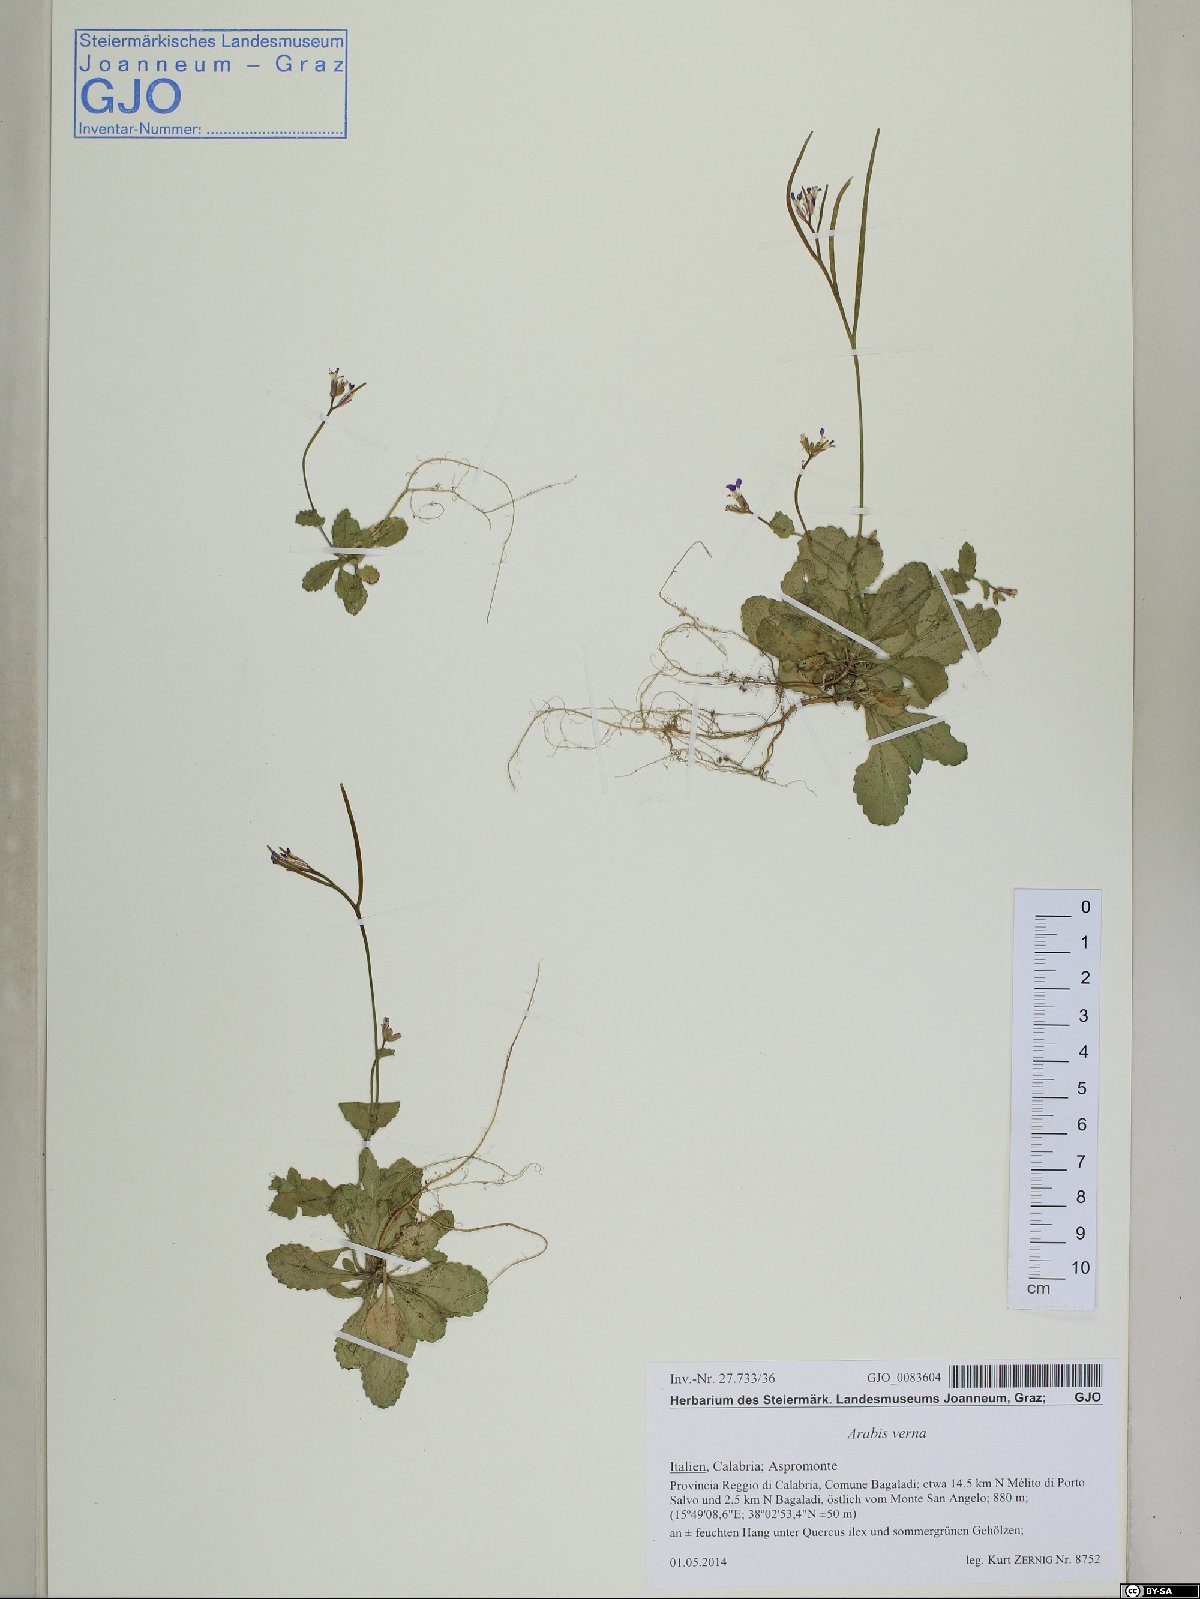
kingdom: Plantae
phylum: Tracheophyta
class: Magnoliopsida
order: Brassicales
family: Brassicaceae
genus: Arabis
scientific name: Arabis verna
